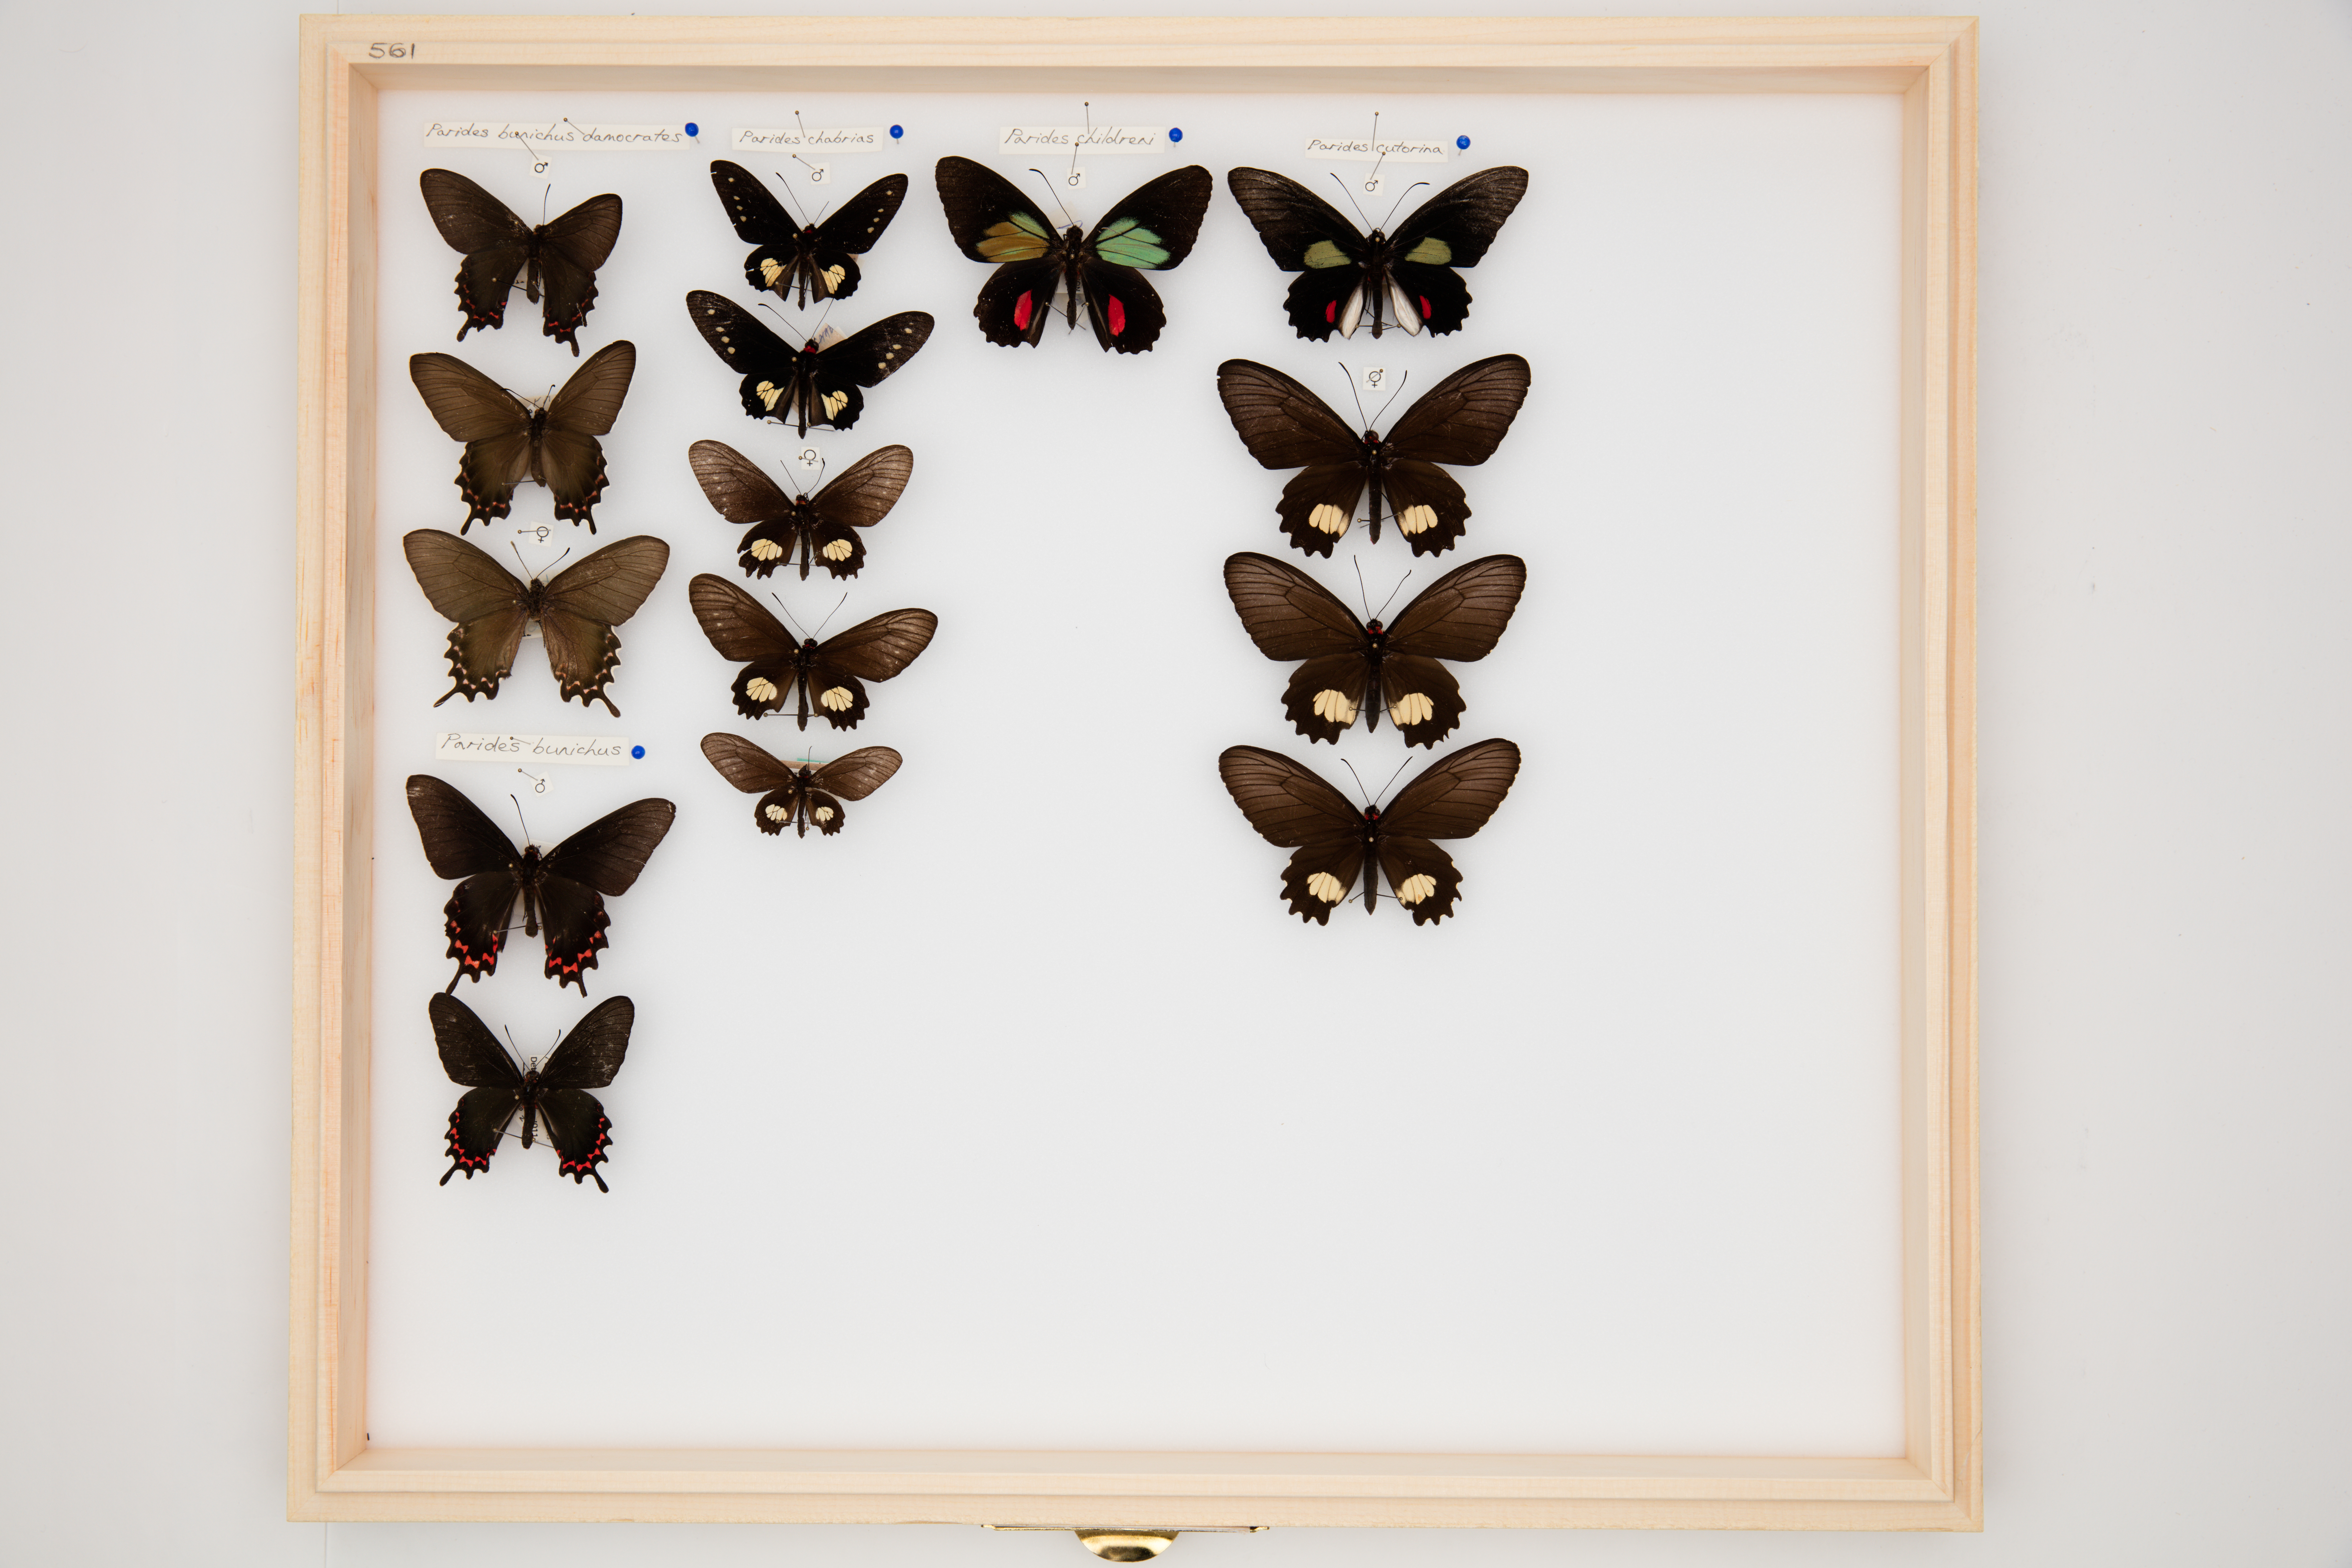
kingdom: Animalia
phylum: Arthropoda
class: Insecta
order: Lepidoptera
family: Papilionidae
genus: Parides
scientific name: Parides chabrias
